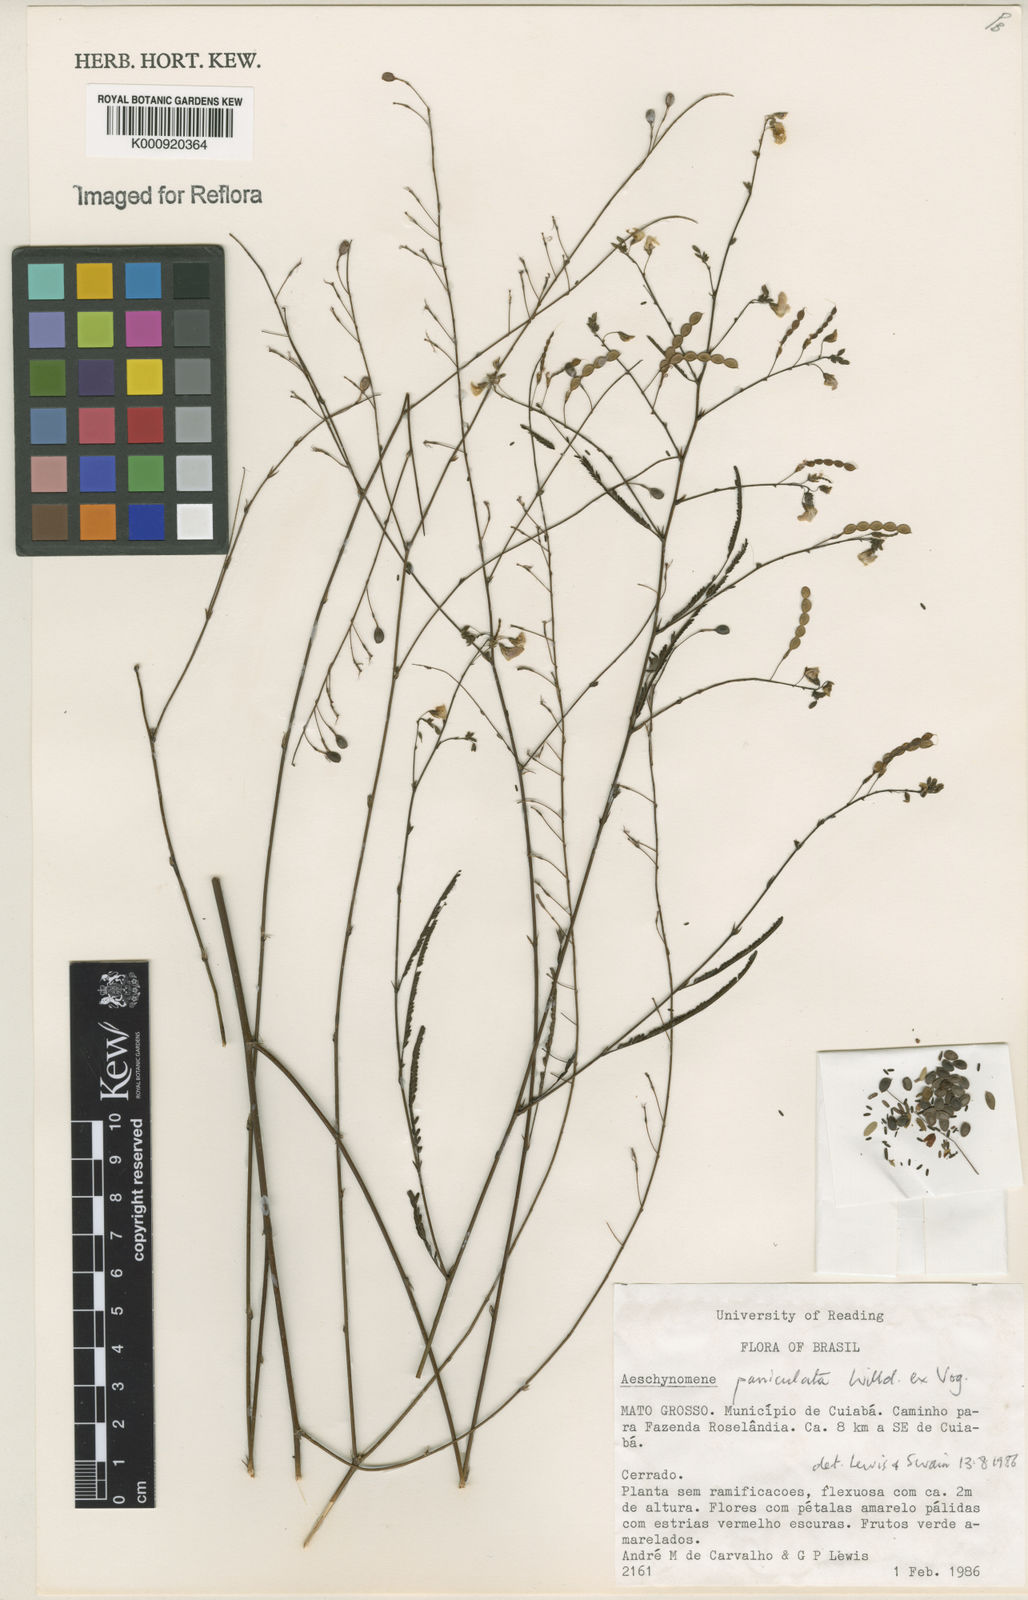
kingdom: Plantae
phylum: Tracheophyta
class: Magnoliopsida
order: Fabales
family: Fabaceae
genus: Ctenodon
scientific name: Ctenodon paniculatus
